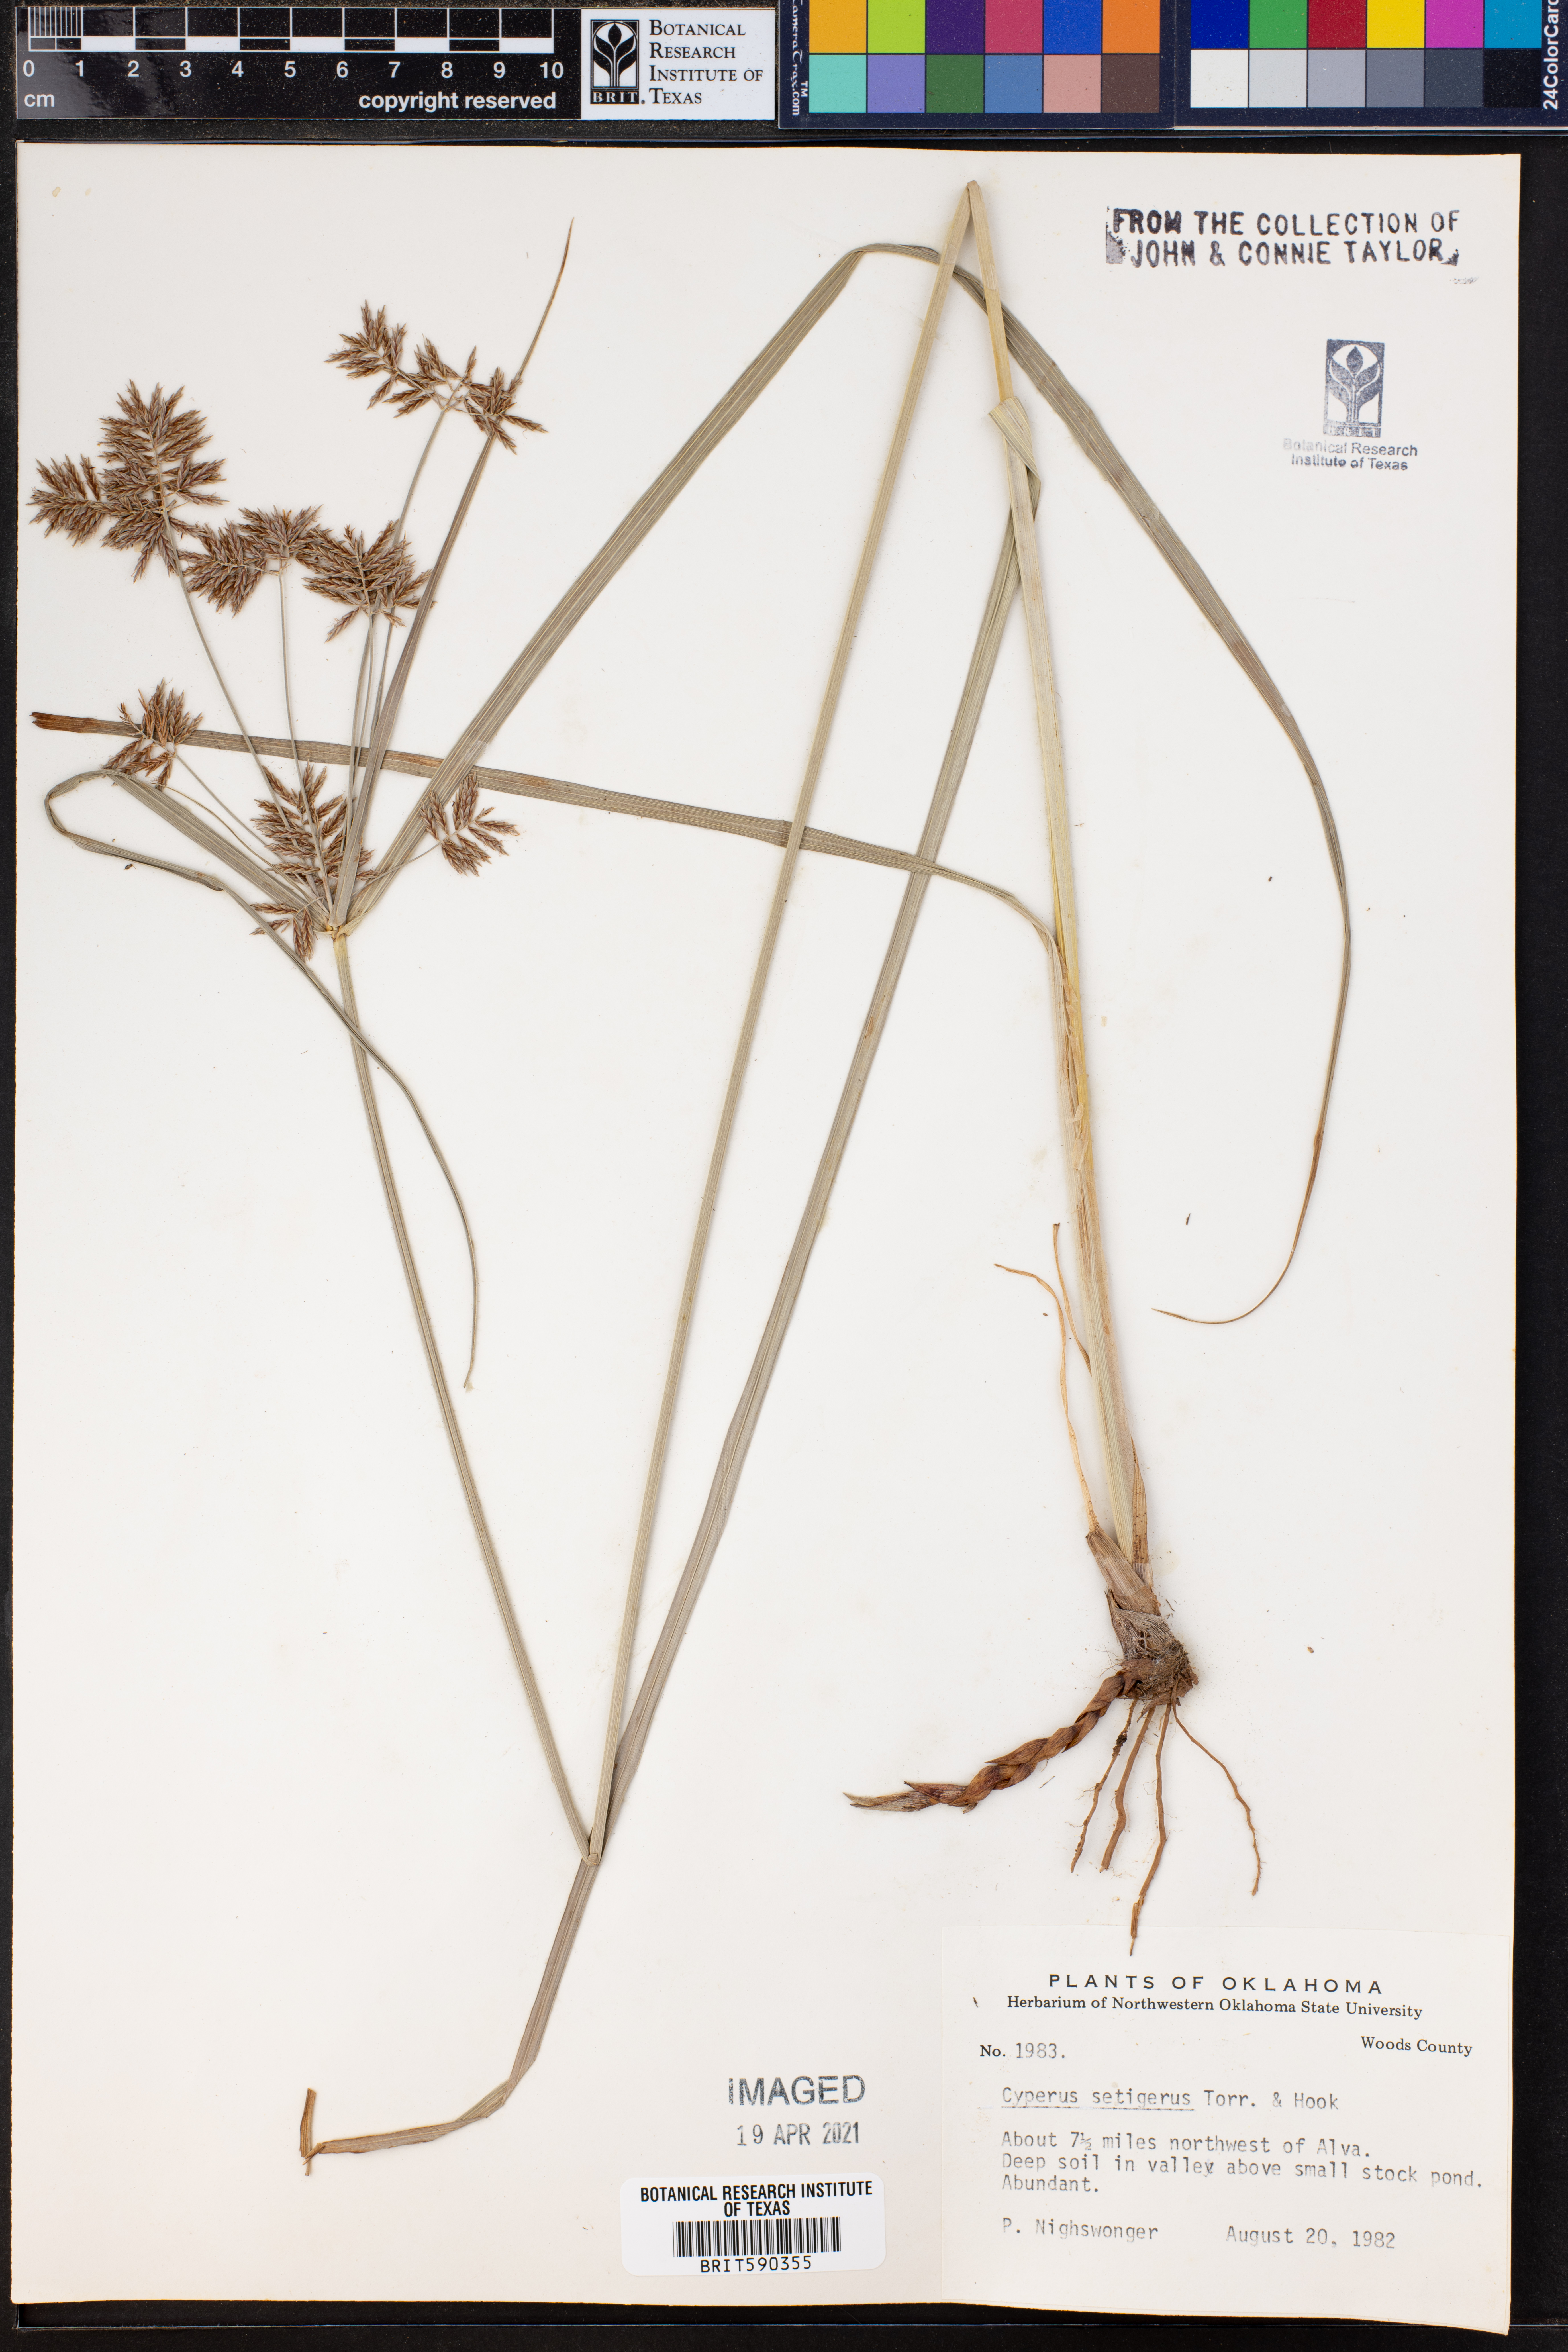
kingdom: Plantae
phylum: Tracheophyta
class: Liliopsida
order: Poales
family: Cyperaceae
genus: Cyperus
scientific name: Cyperus setigerus
